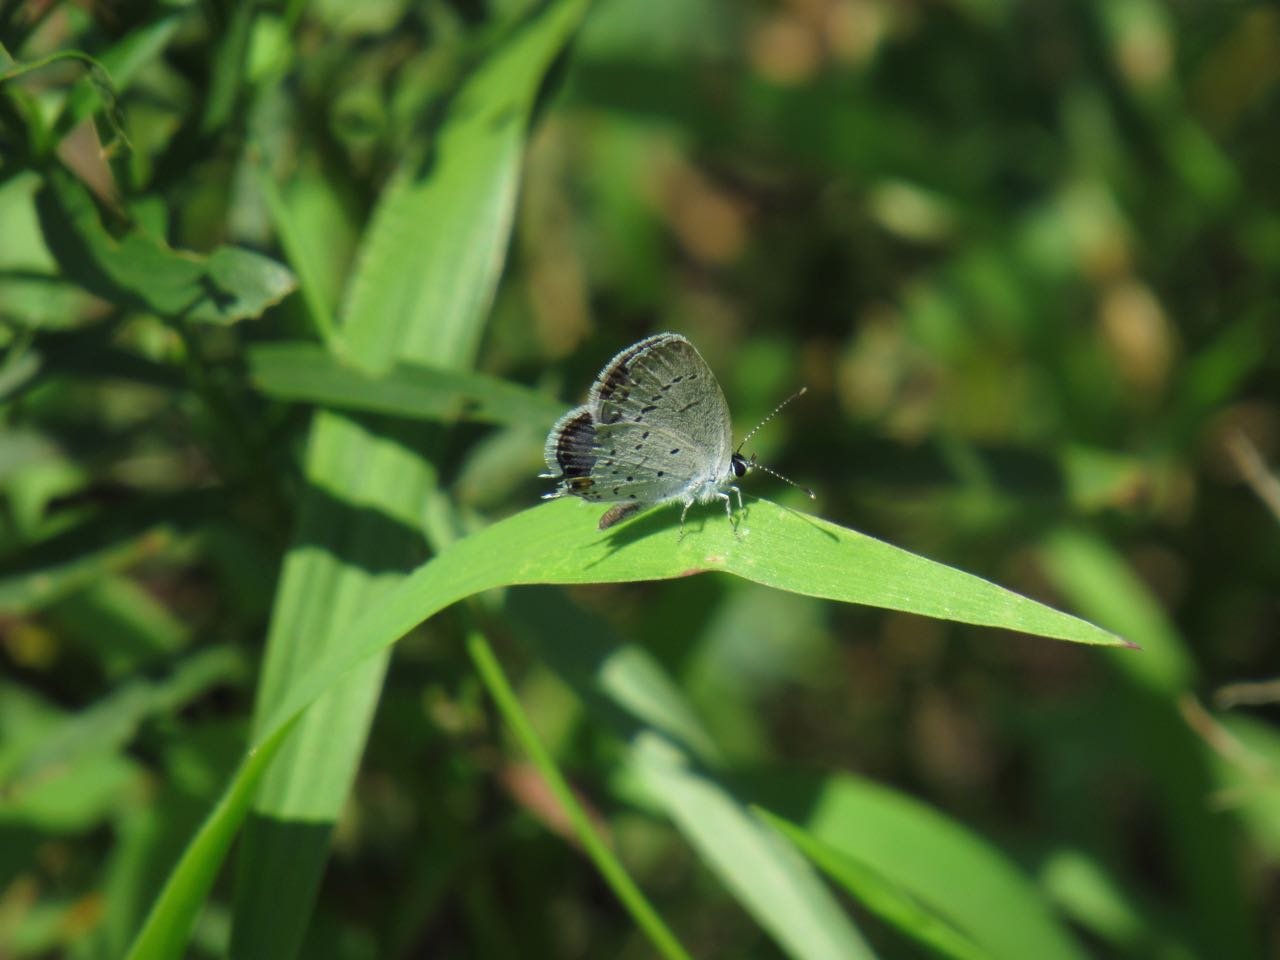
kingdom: Animalia
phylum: Arthropoda
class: Insecta
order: Lepidoptera
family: Lycaenidae
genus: Elkalyce
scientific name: Elkalyce comyntas
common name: Eastern Tailed-Blue
